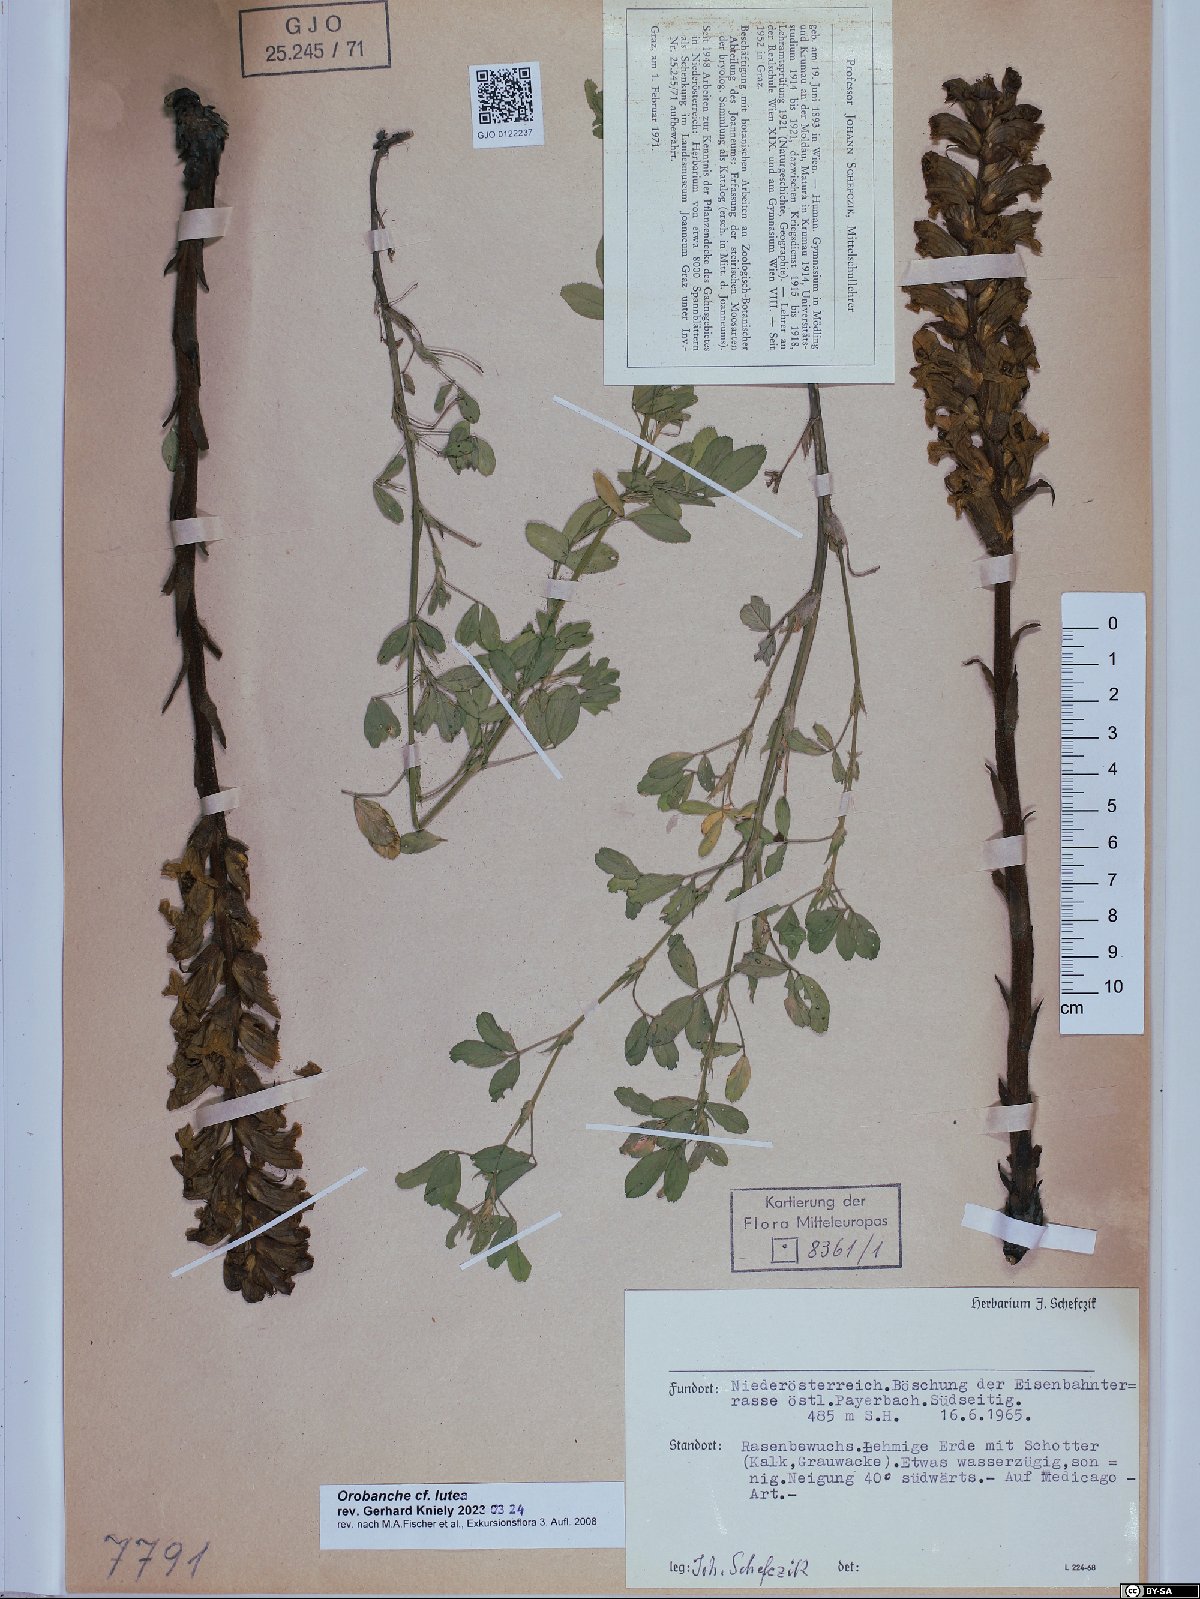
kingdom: Plantae
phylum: Tracheophyta
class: Magnoliopsida
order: Lamiales
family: Orobanchaceae
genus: Orobanche
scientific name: Orobanche lutea
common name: Yellow broomrape
